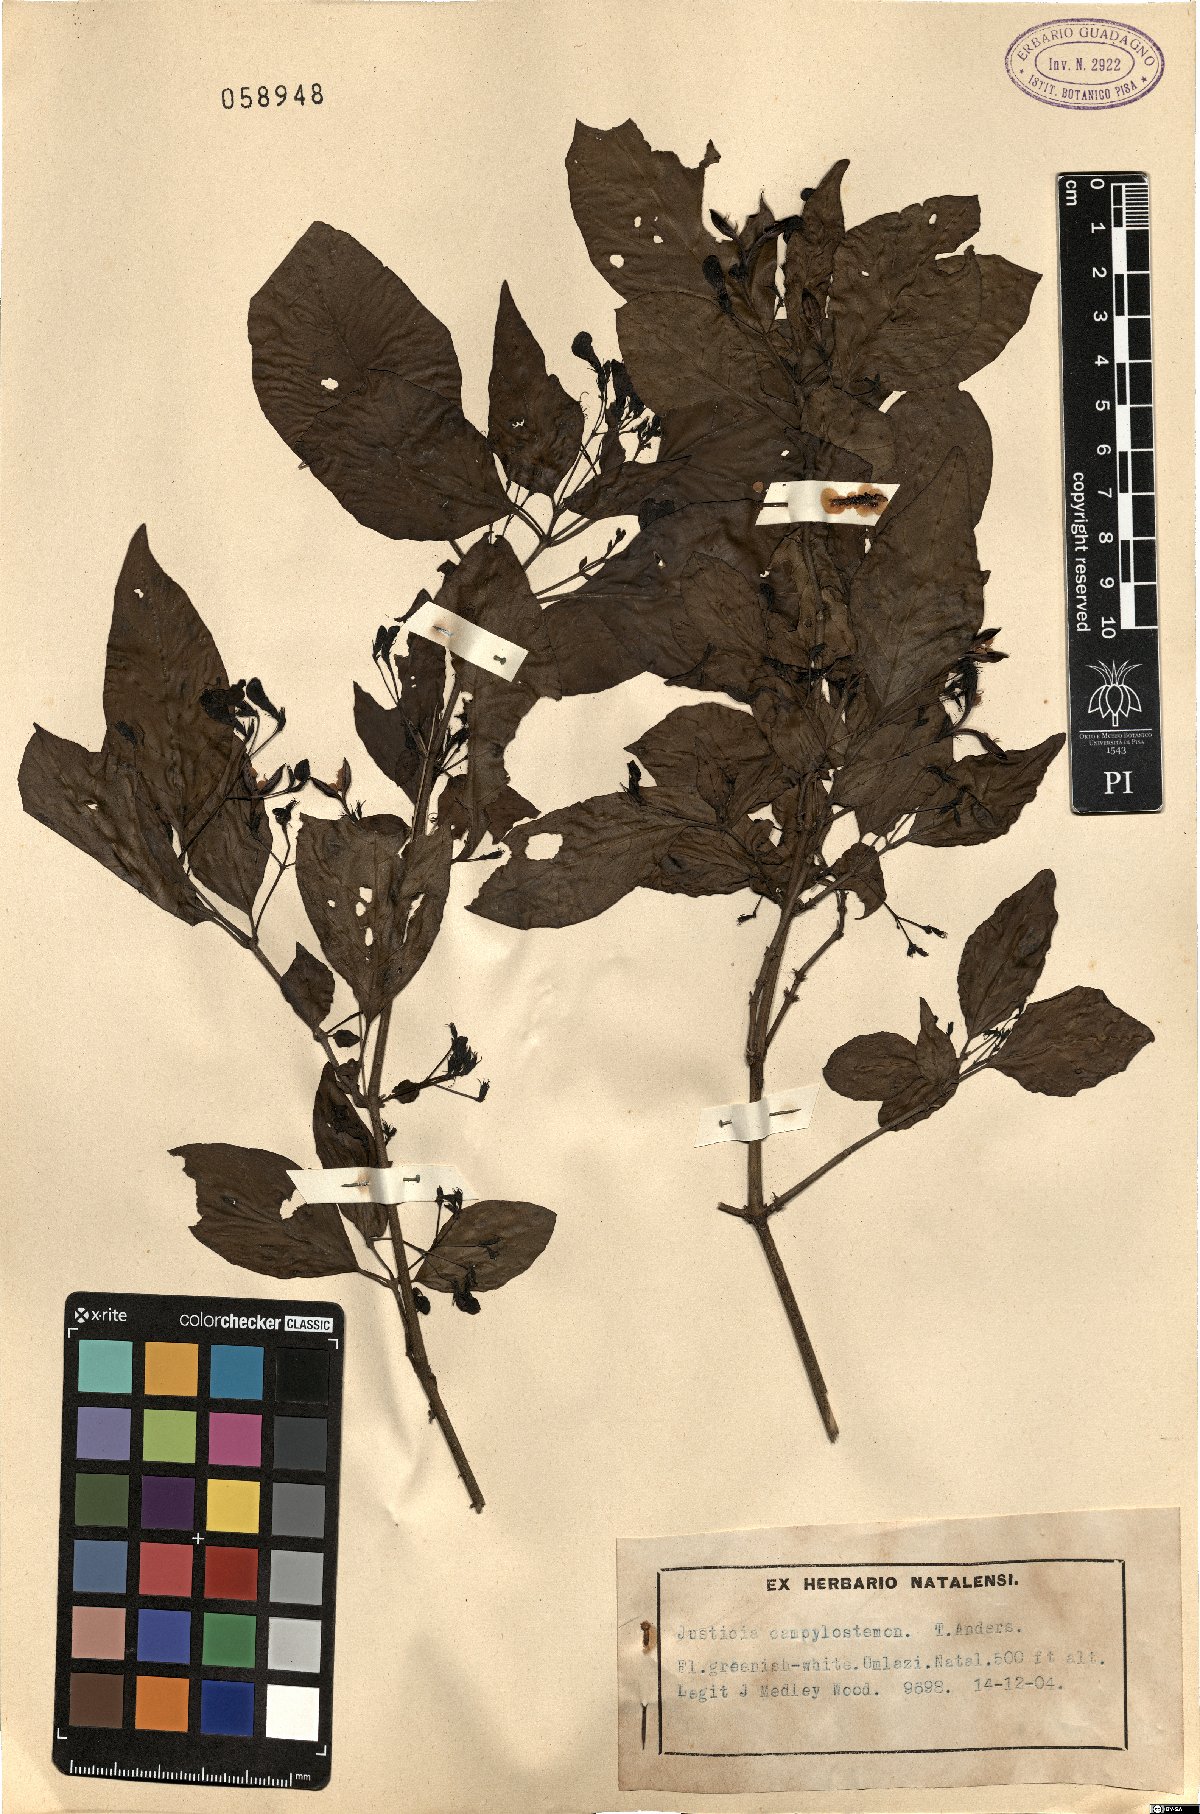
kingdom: Plantae
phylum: Tracheophyta
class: Magnoliopsida
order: Lamiales
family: Acanthaceae
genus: Justicia
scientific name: Justicia campylostemon
